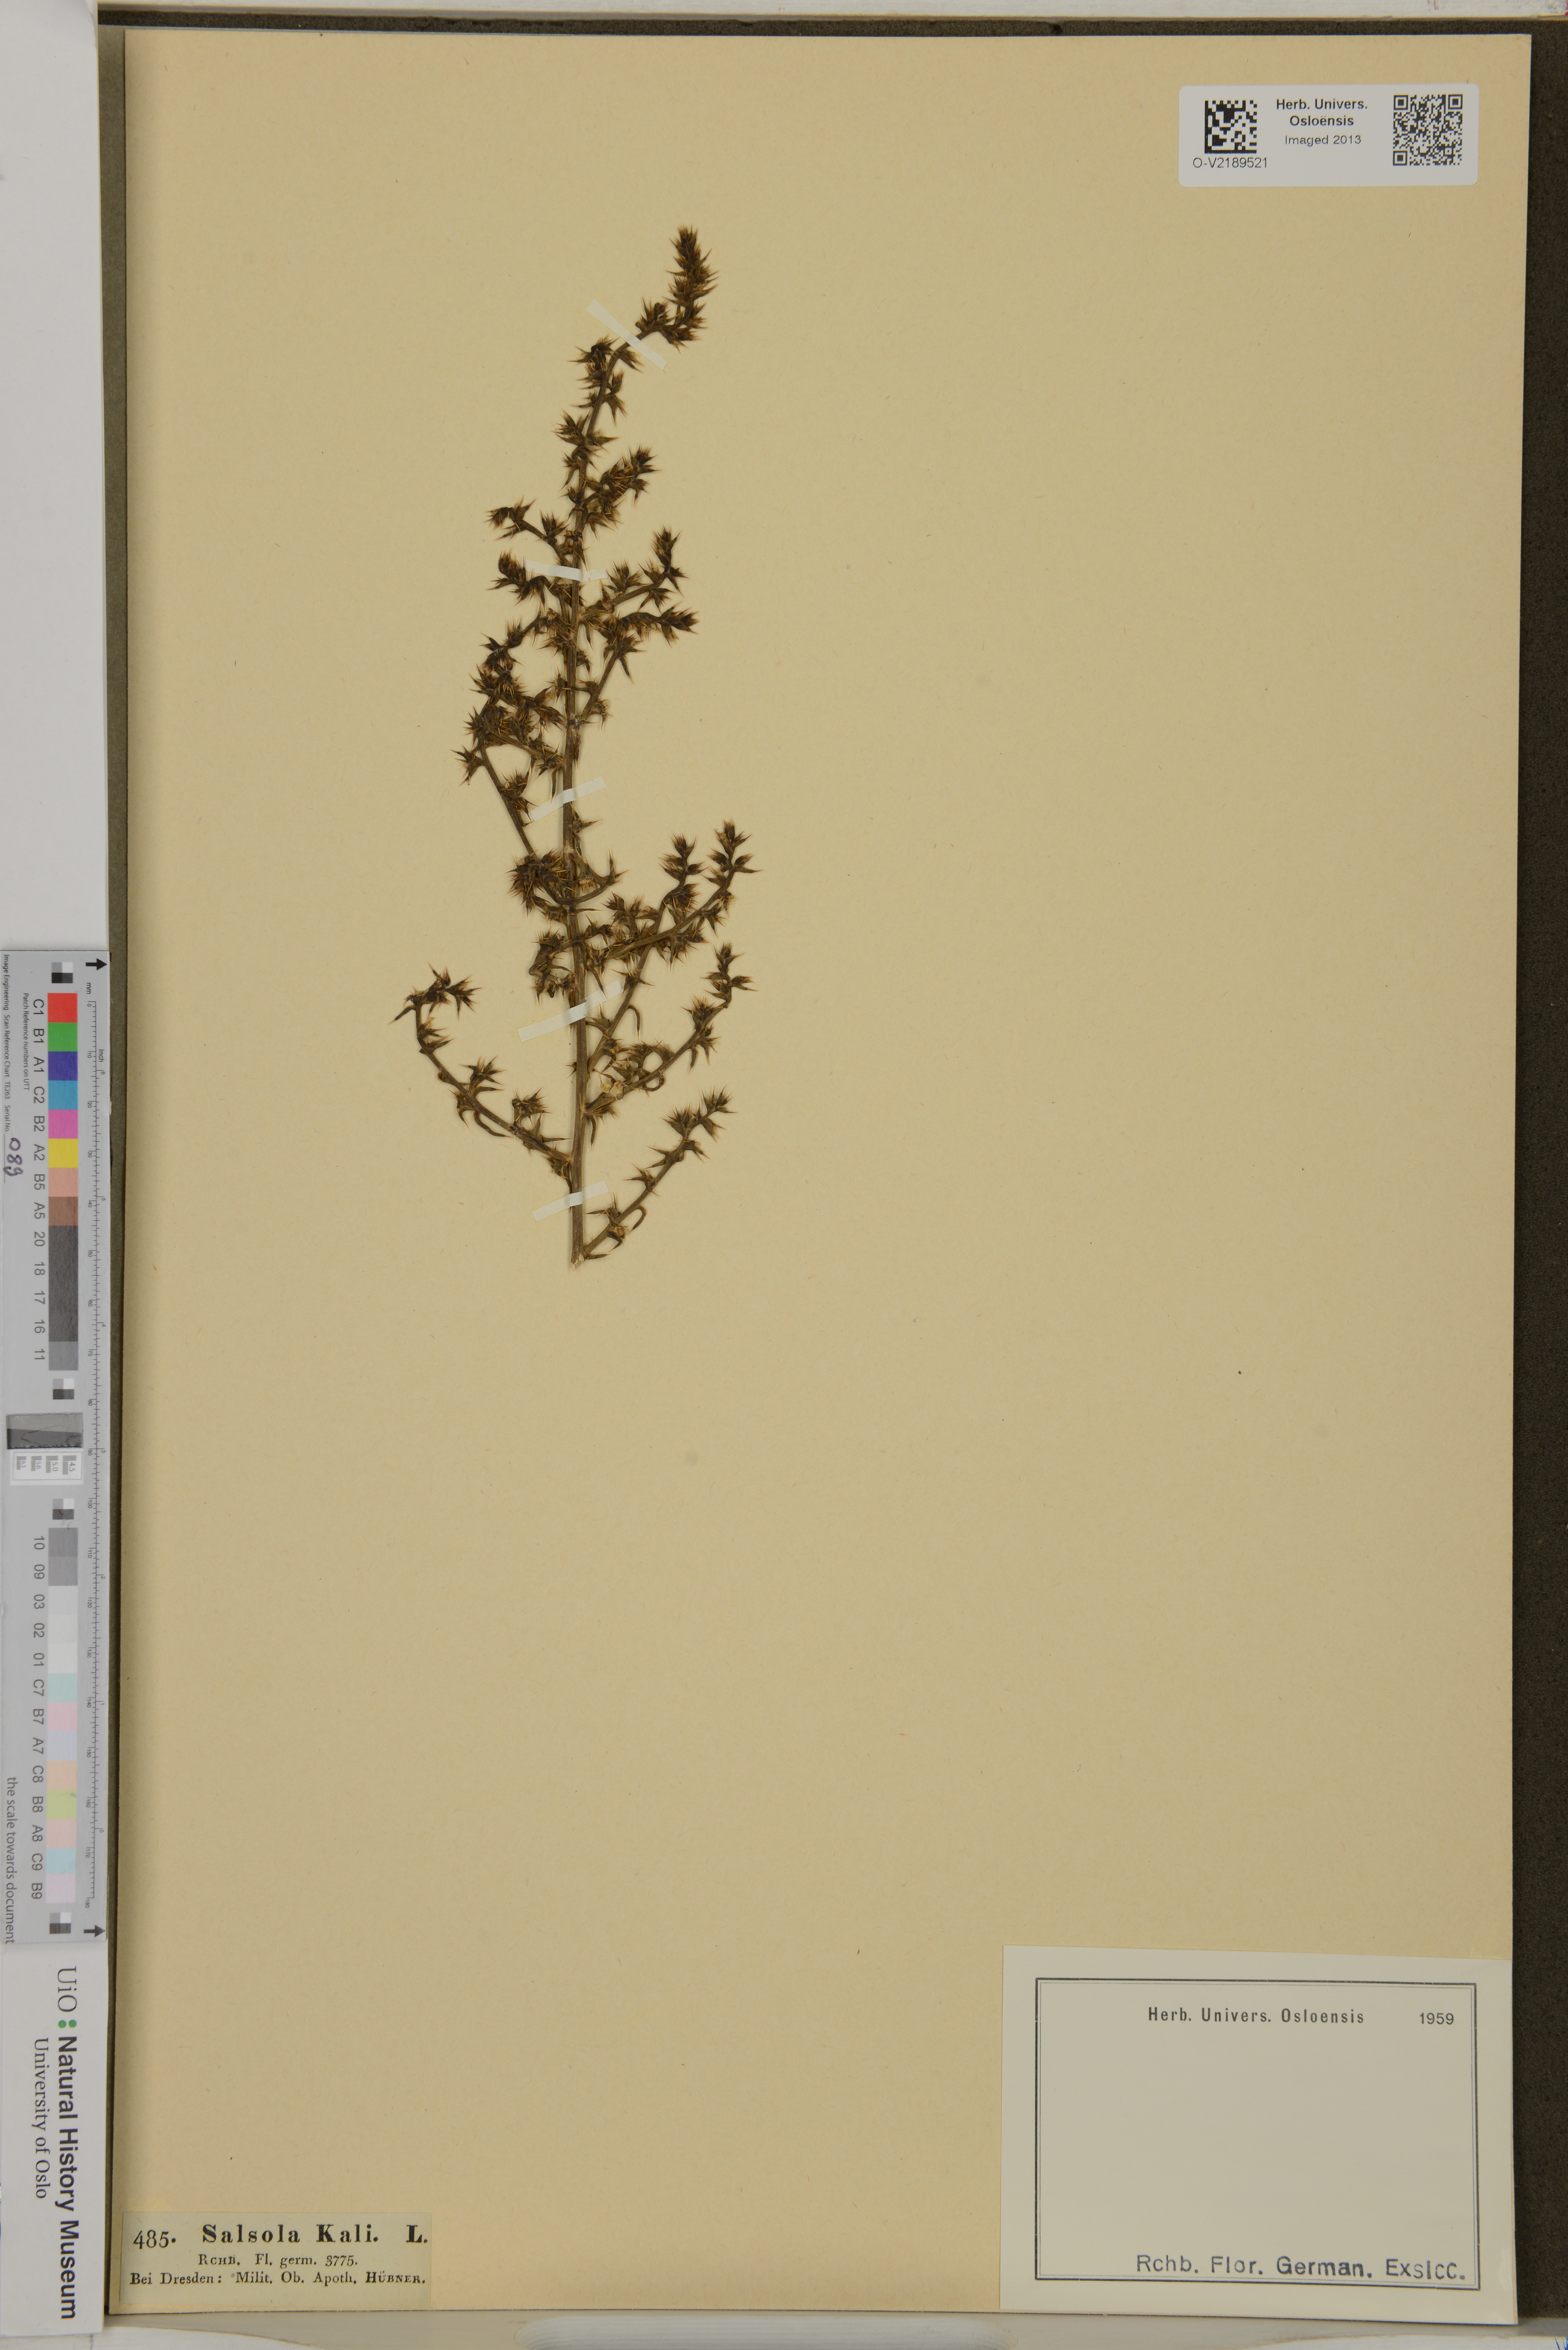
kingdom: Plantae
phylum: Tracheophyta
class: Magnoliopsida
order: Caryophyllales
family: Amaranthaceae
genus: Salsola
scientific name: Salsola kali
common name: Saltwort
